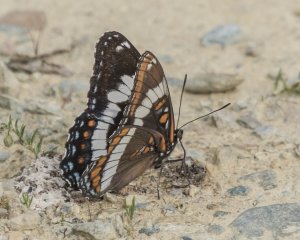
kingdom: Animalia
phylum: Arthropoda
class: Insecta
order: Lepidoptera
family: Nymphalidae
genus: Limenitis
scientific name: Limenitis arthemis
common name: Red-spotted Admiral
